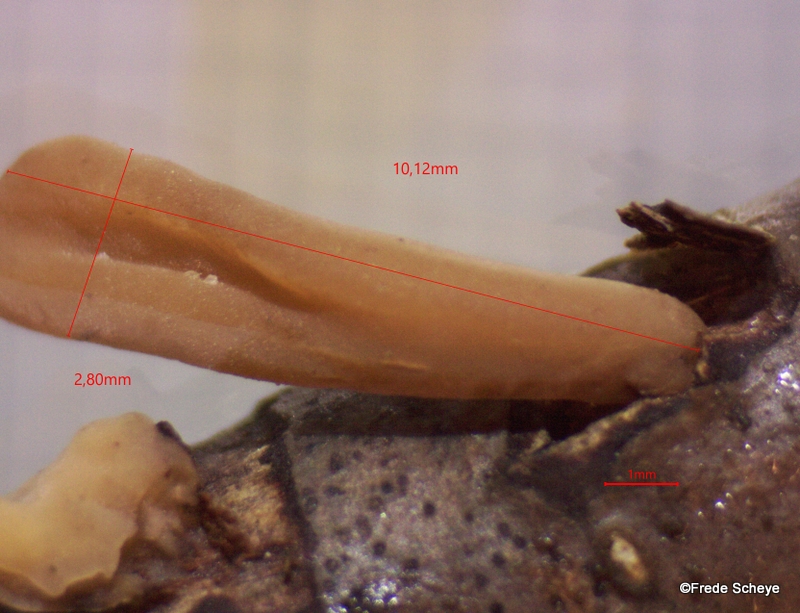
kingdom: Fungi
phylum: Basidiomycota
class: Agaricomycetes
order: Agaricales
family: Typhulaceae
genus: Typhula
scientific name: Typhula contorta
